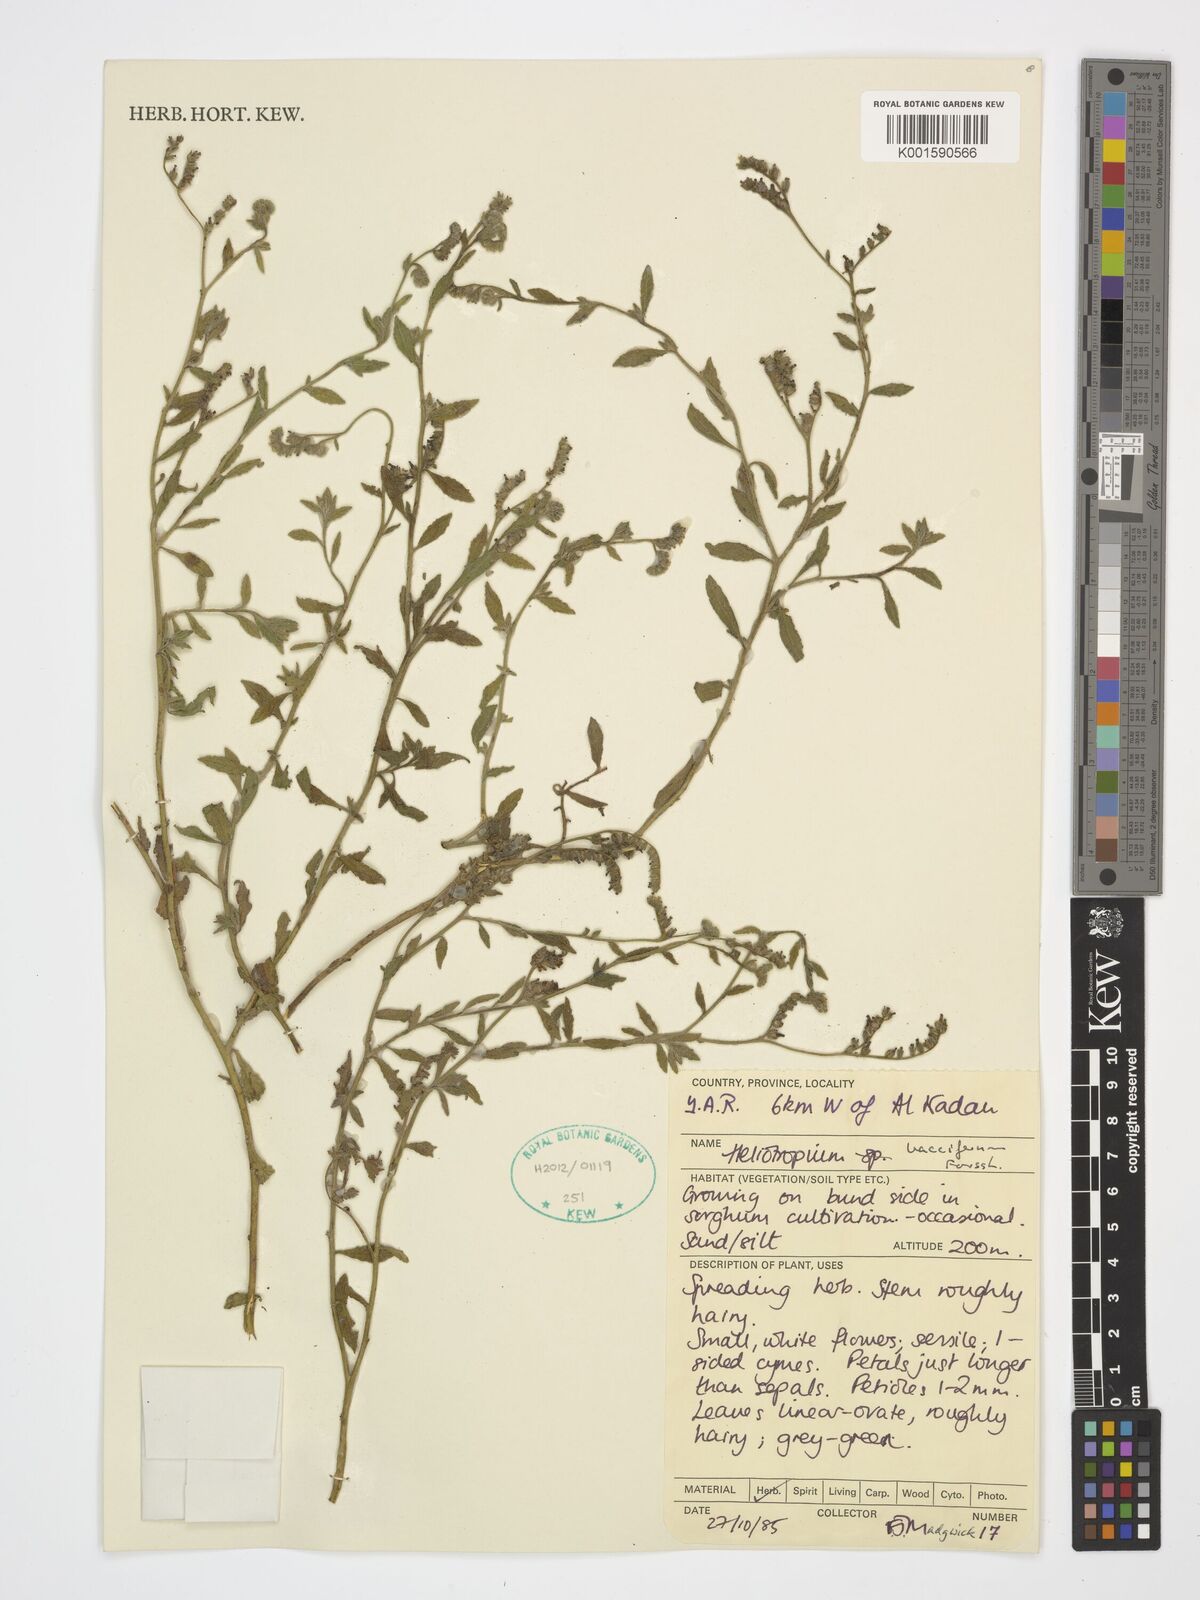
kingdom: Plantae
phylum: Tracheophyta
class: Magnoliopsida
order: Boraginales
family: Heliotropiaceae
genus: Heliotropium
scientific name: Heliotropium bacciferum
